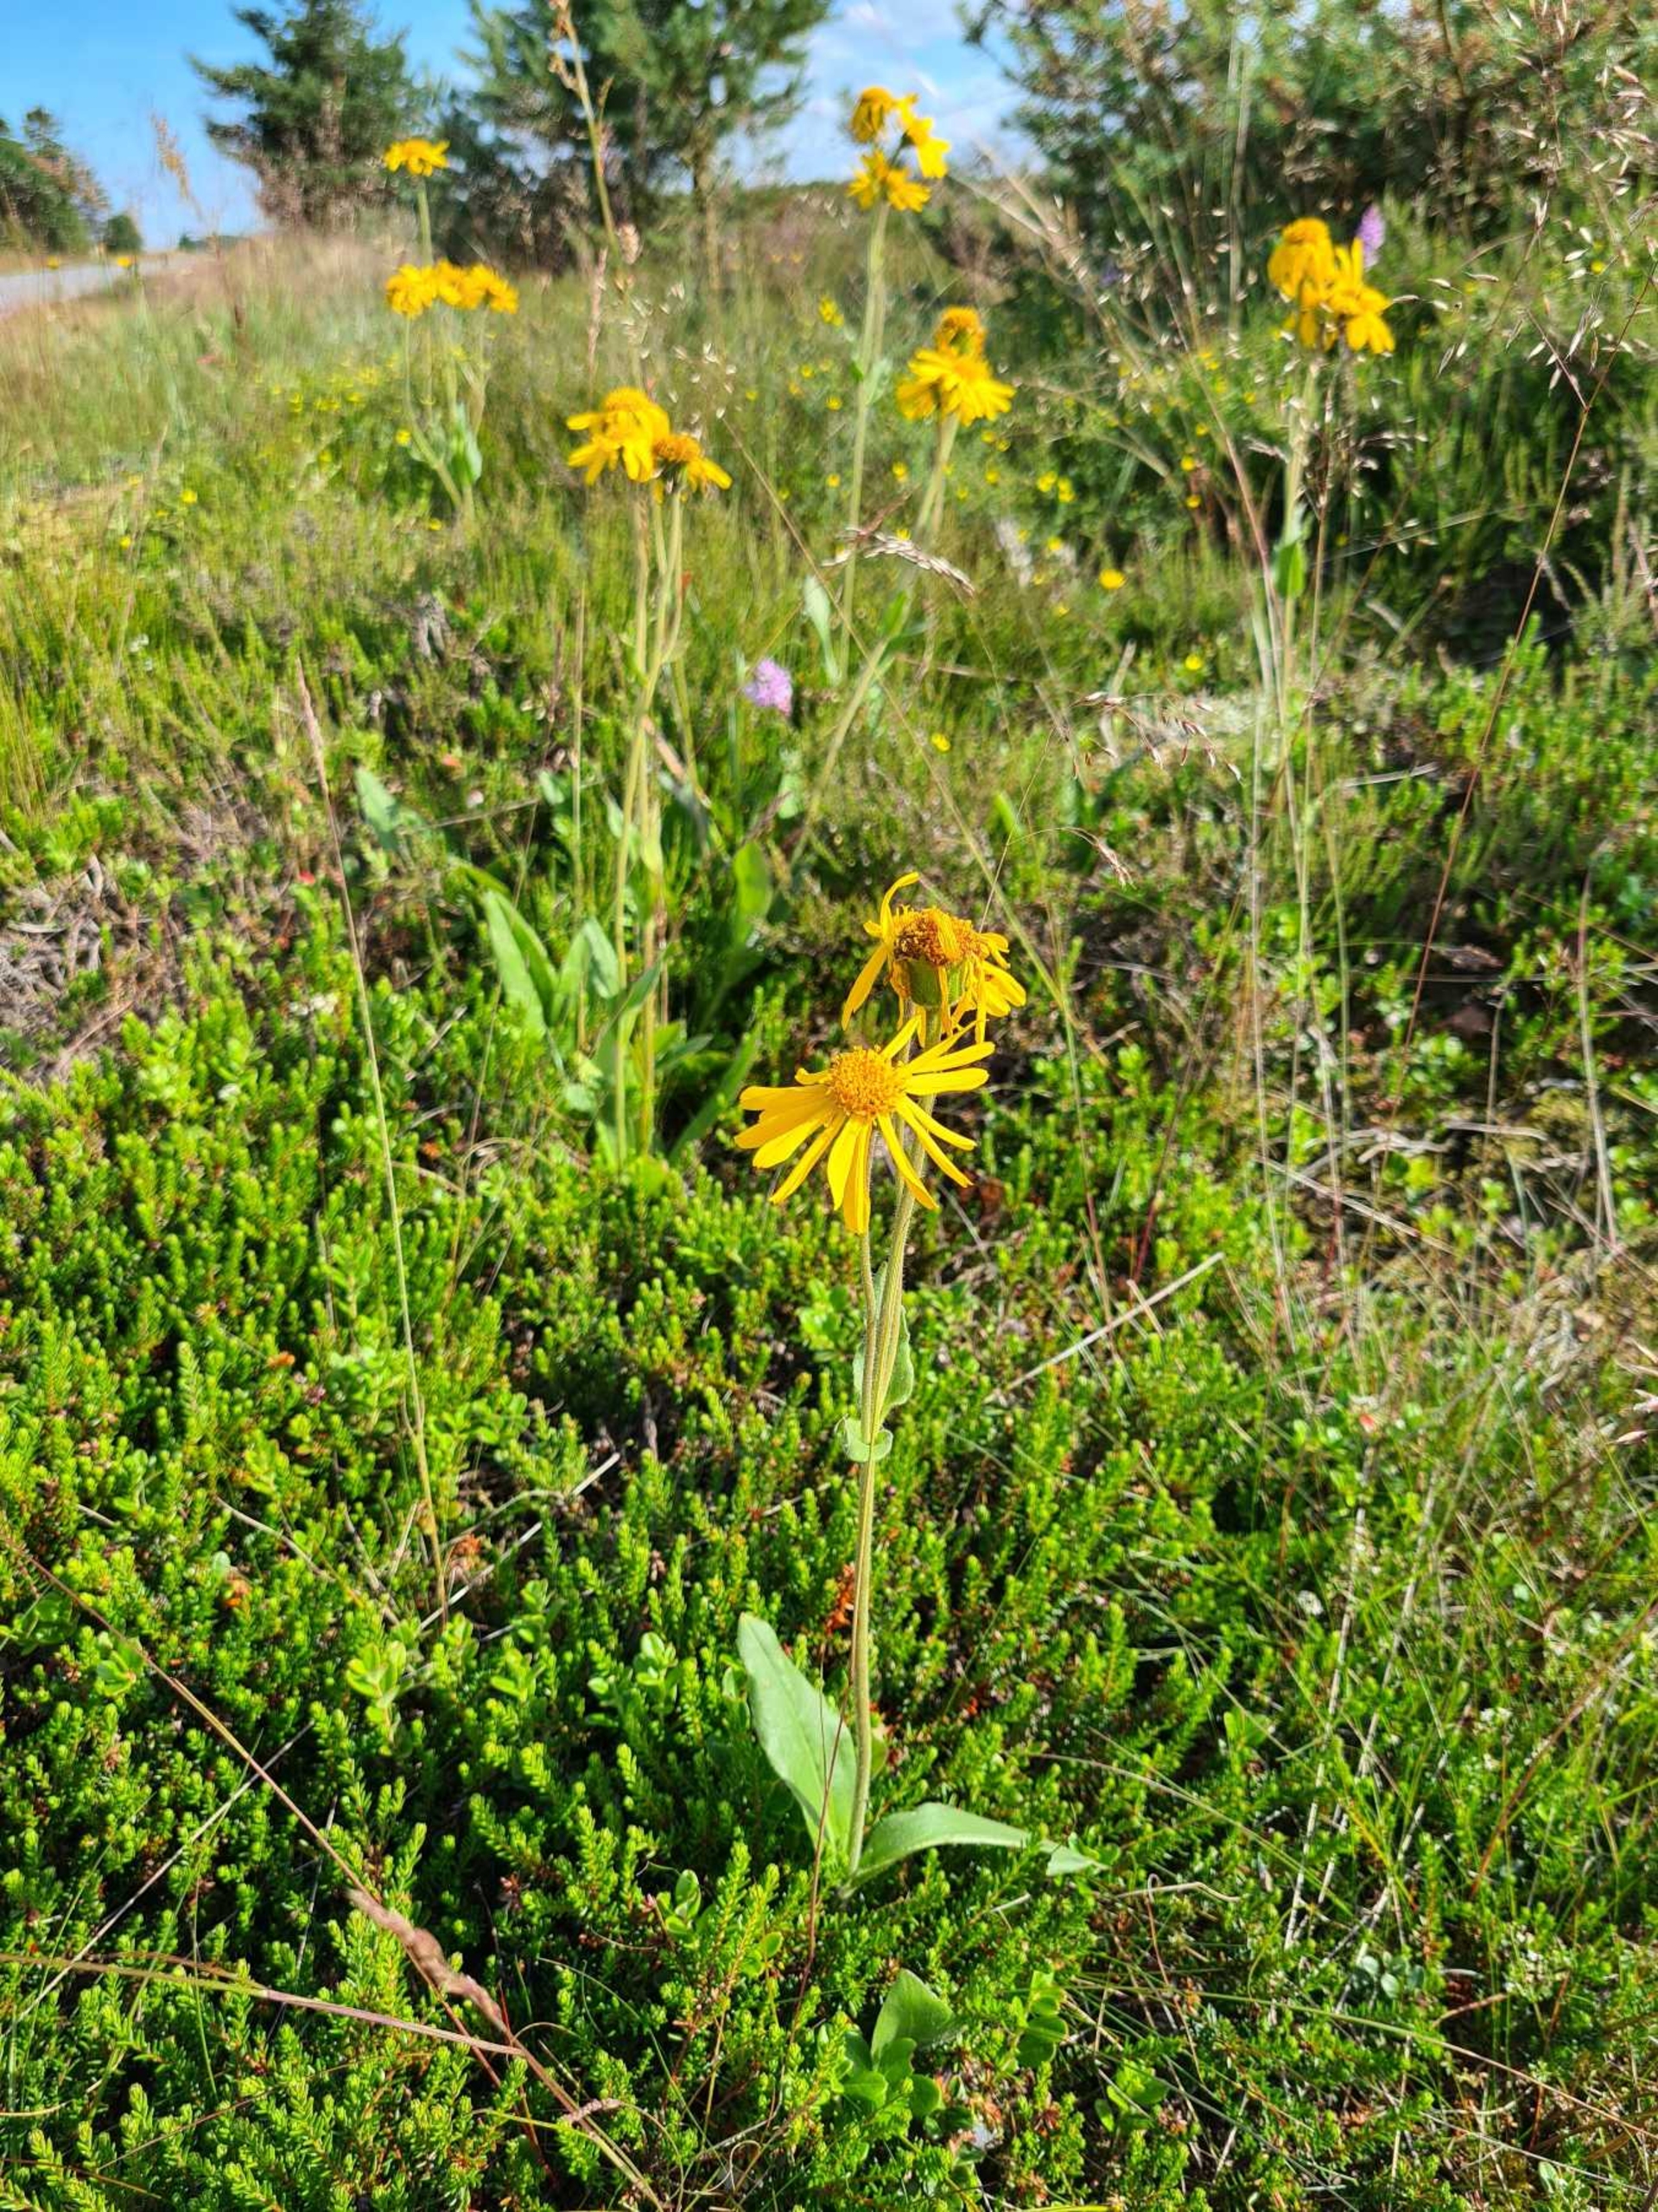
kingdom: Plantae
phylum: Tracheophyta
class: Magnoliopsida
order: Asterales
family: Asteraceae
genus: Arnica
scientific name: Arnica montana
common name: Guldblomme
